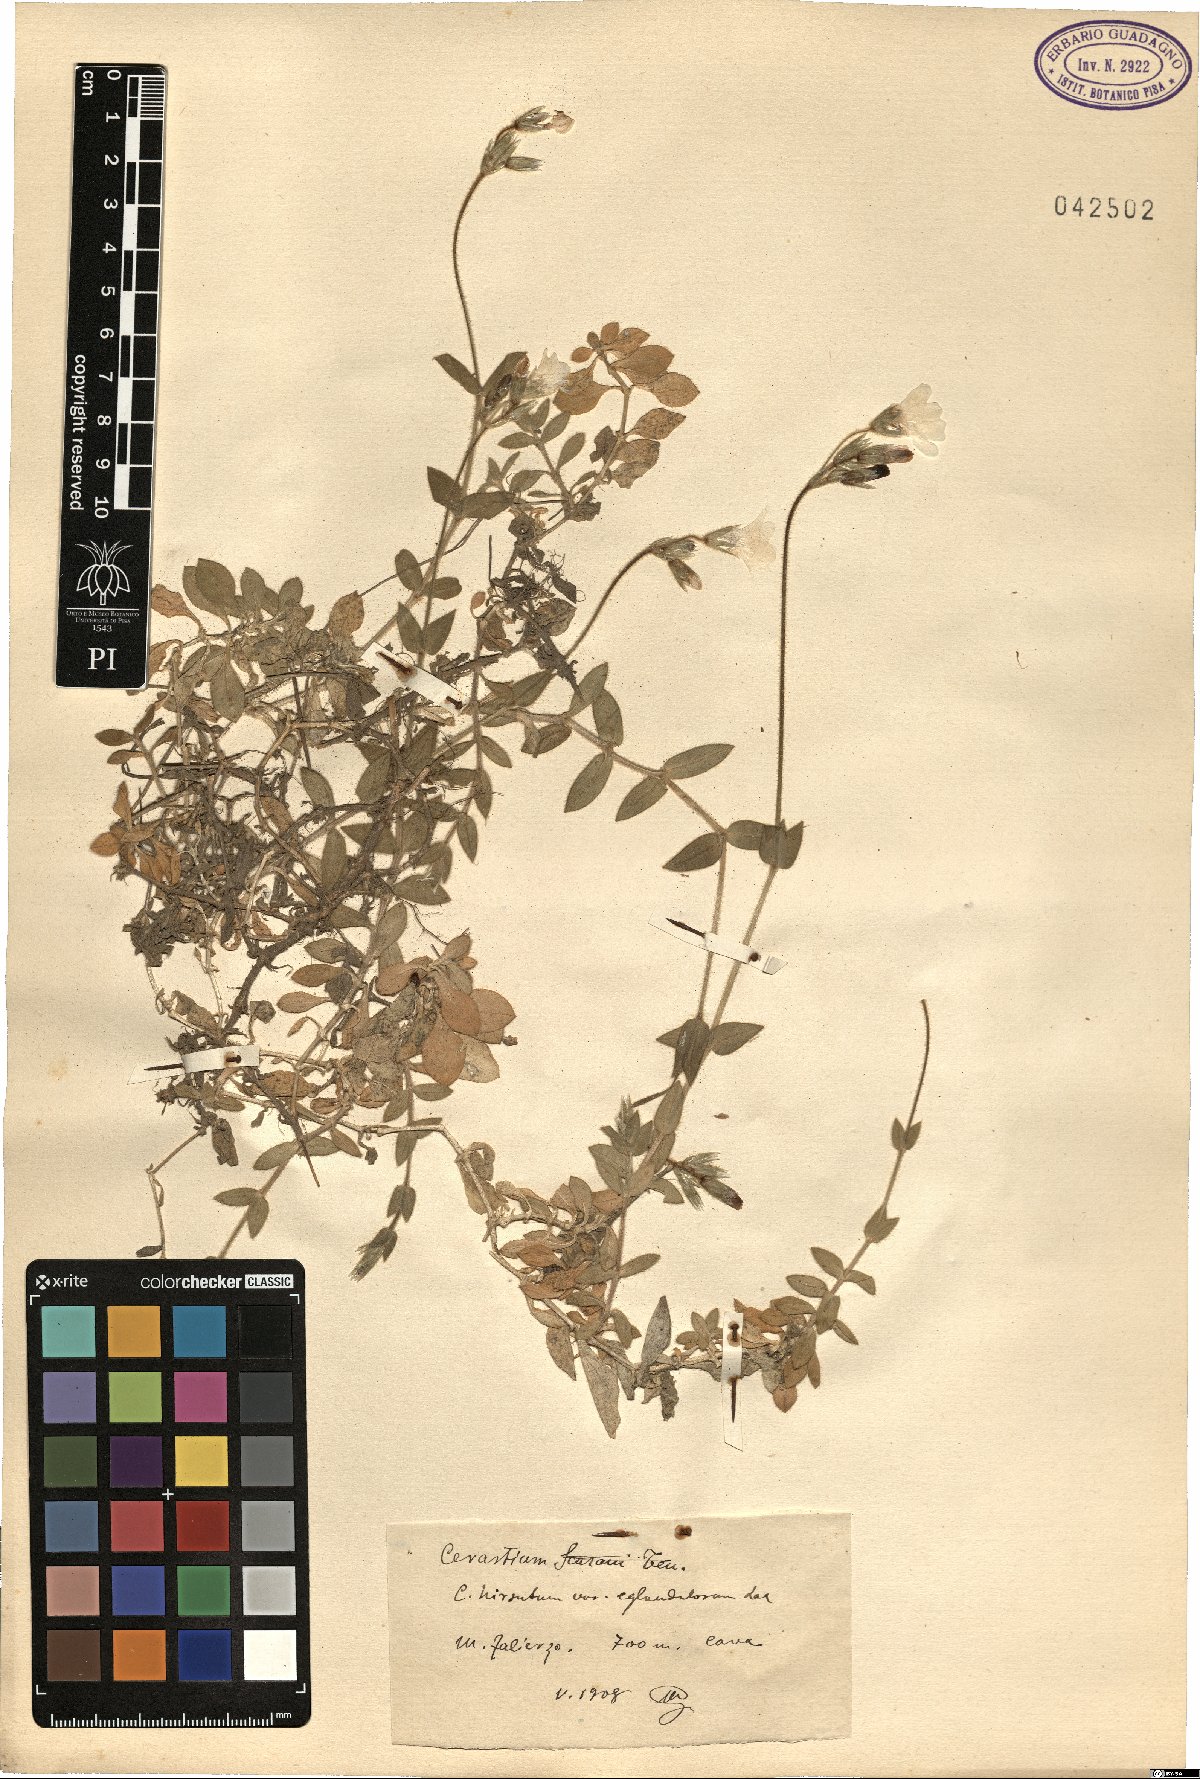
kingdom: Plantae
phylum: Tracheophyta
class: Magnoliopsida
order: Caryophyllales
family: Caryophyllaceae
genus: Cerastium
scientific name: Cerastium
